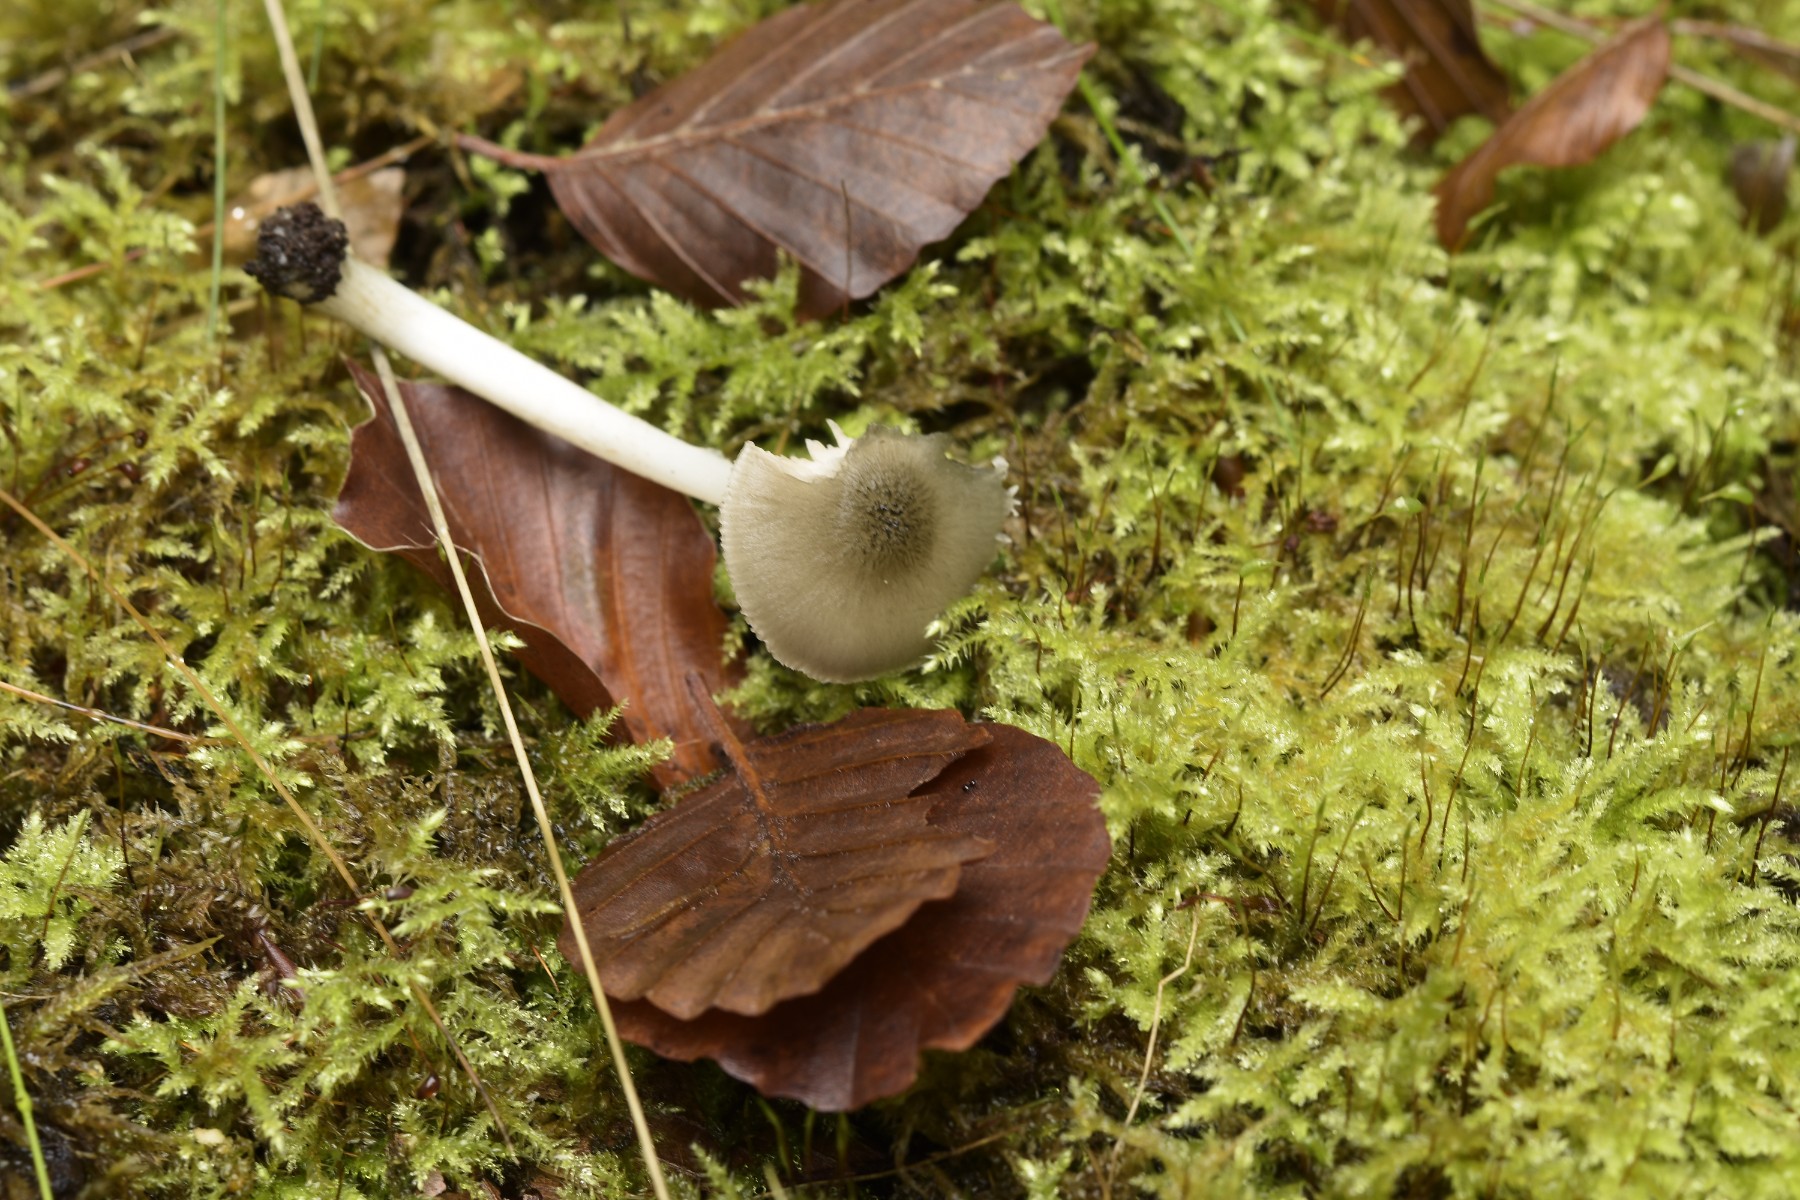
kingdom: Fungi
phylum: Basidiomycota
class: Agaricomycetes
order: Agaricales
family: Pluteaceae
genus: Pluteus
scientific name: Pluteus salicinus
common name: stiv skærmhat
